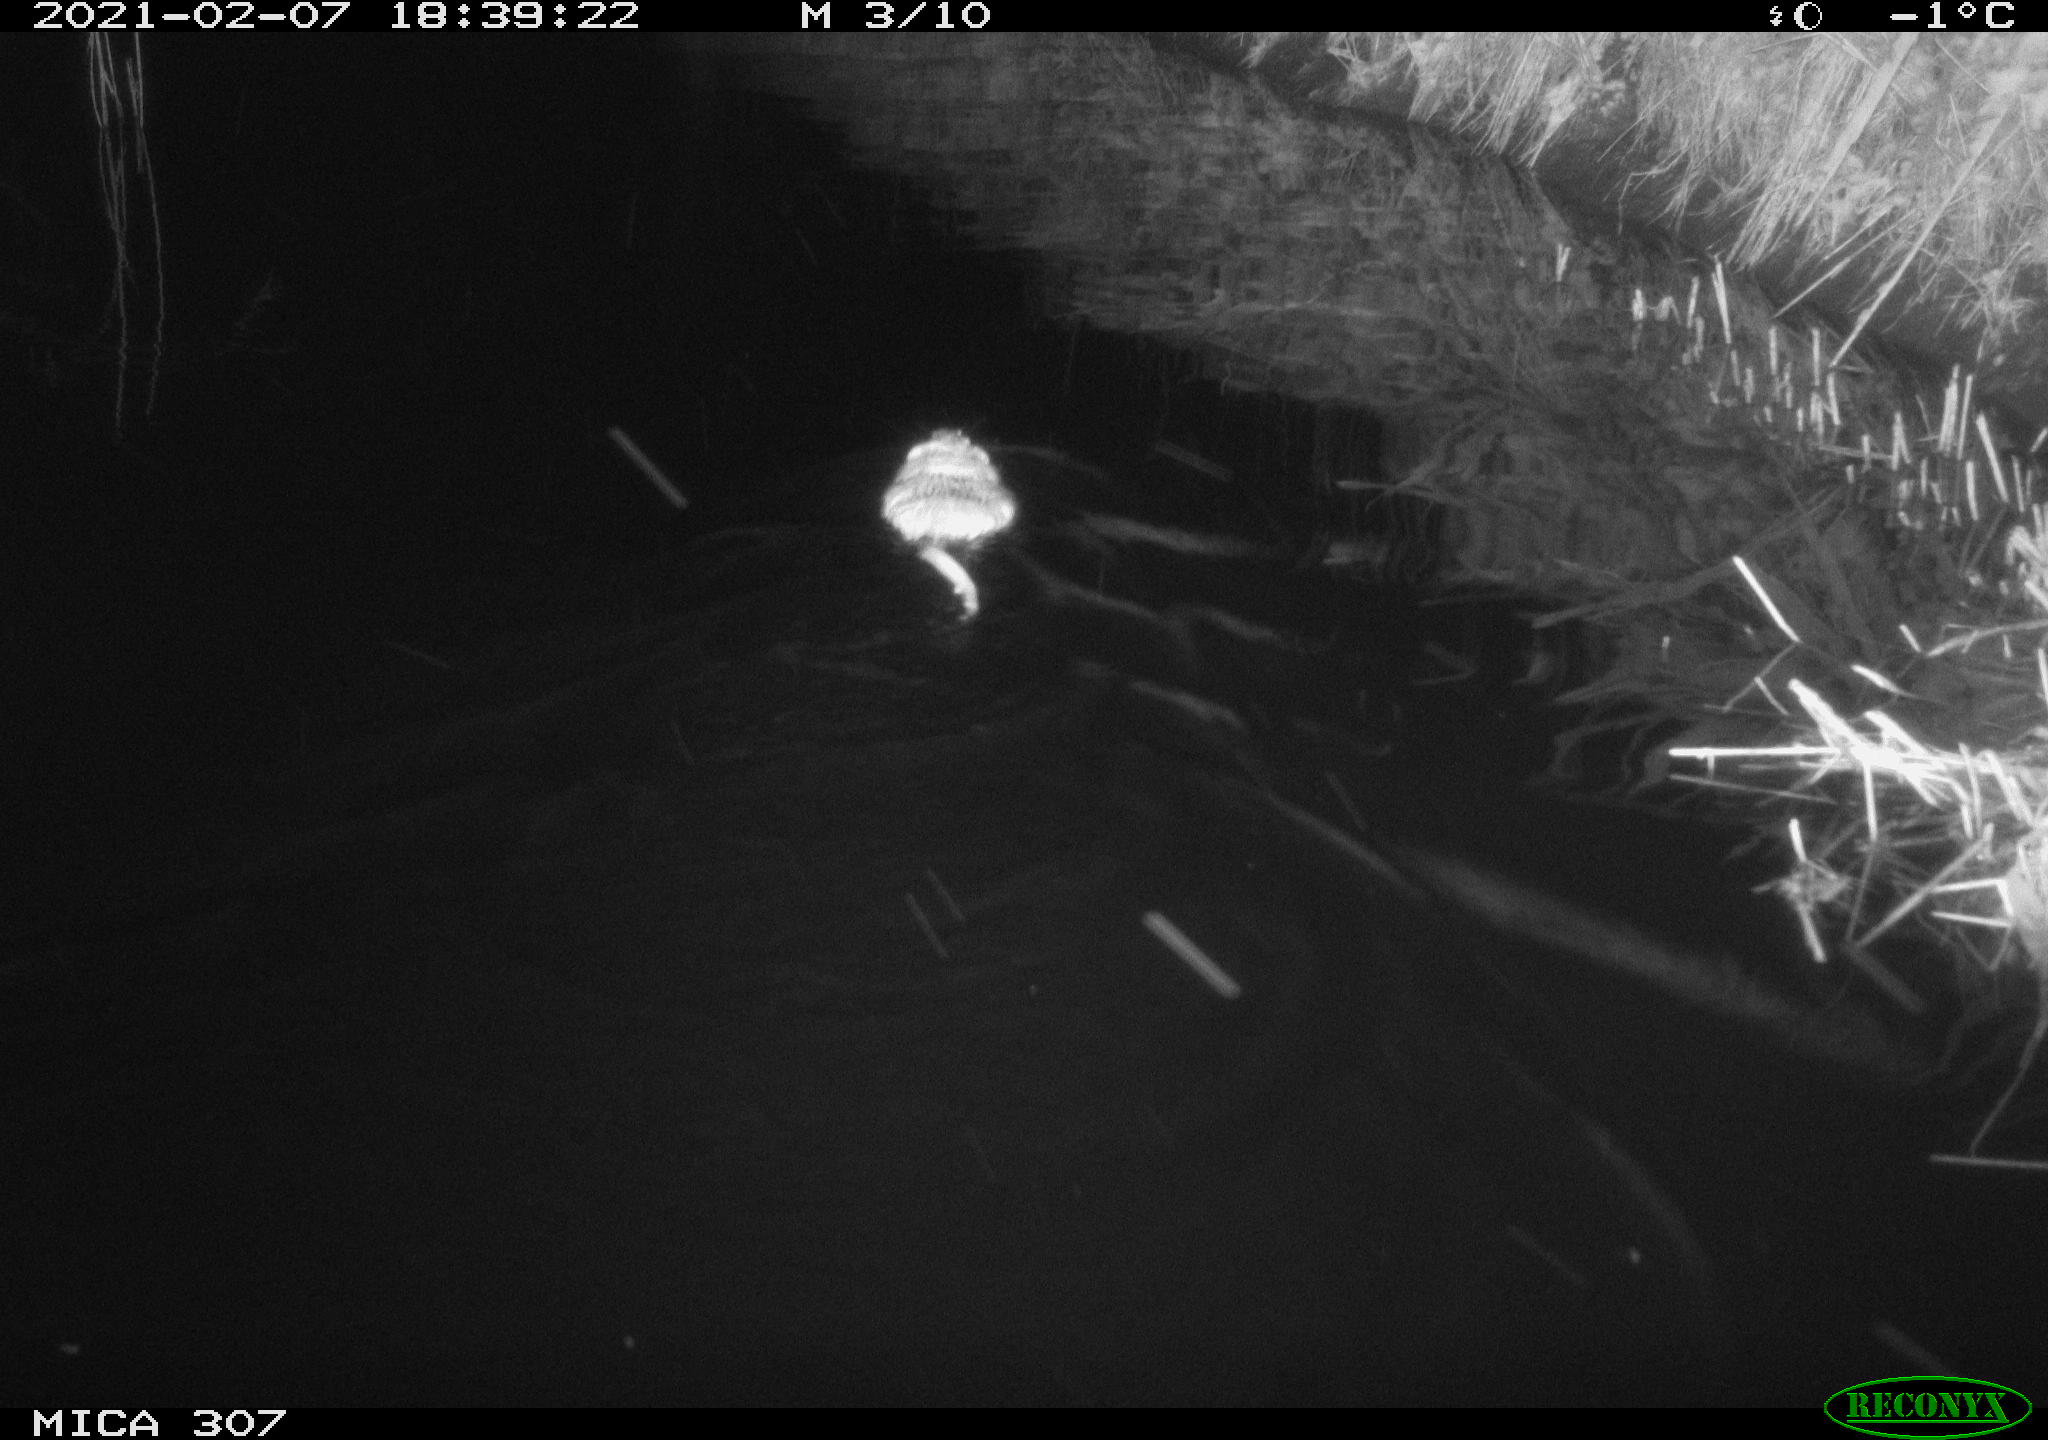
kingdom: Animalia
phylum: Chordata
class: Mammalia
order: Rodentia
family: Cricetidae
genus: Ondatra
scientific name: Ondatra zibethicus
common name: Muskrat
